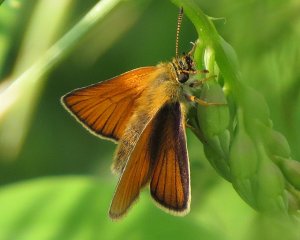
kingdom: Animalia
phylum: Arthropoda
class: Insecta
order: Lepidoptera
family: Hesperiidae
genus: Thymelicus
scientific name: Thymelicus lineola
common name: European Skipper
